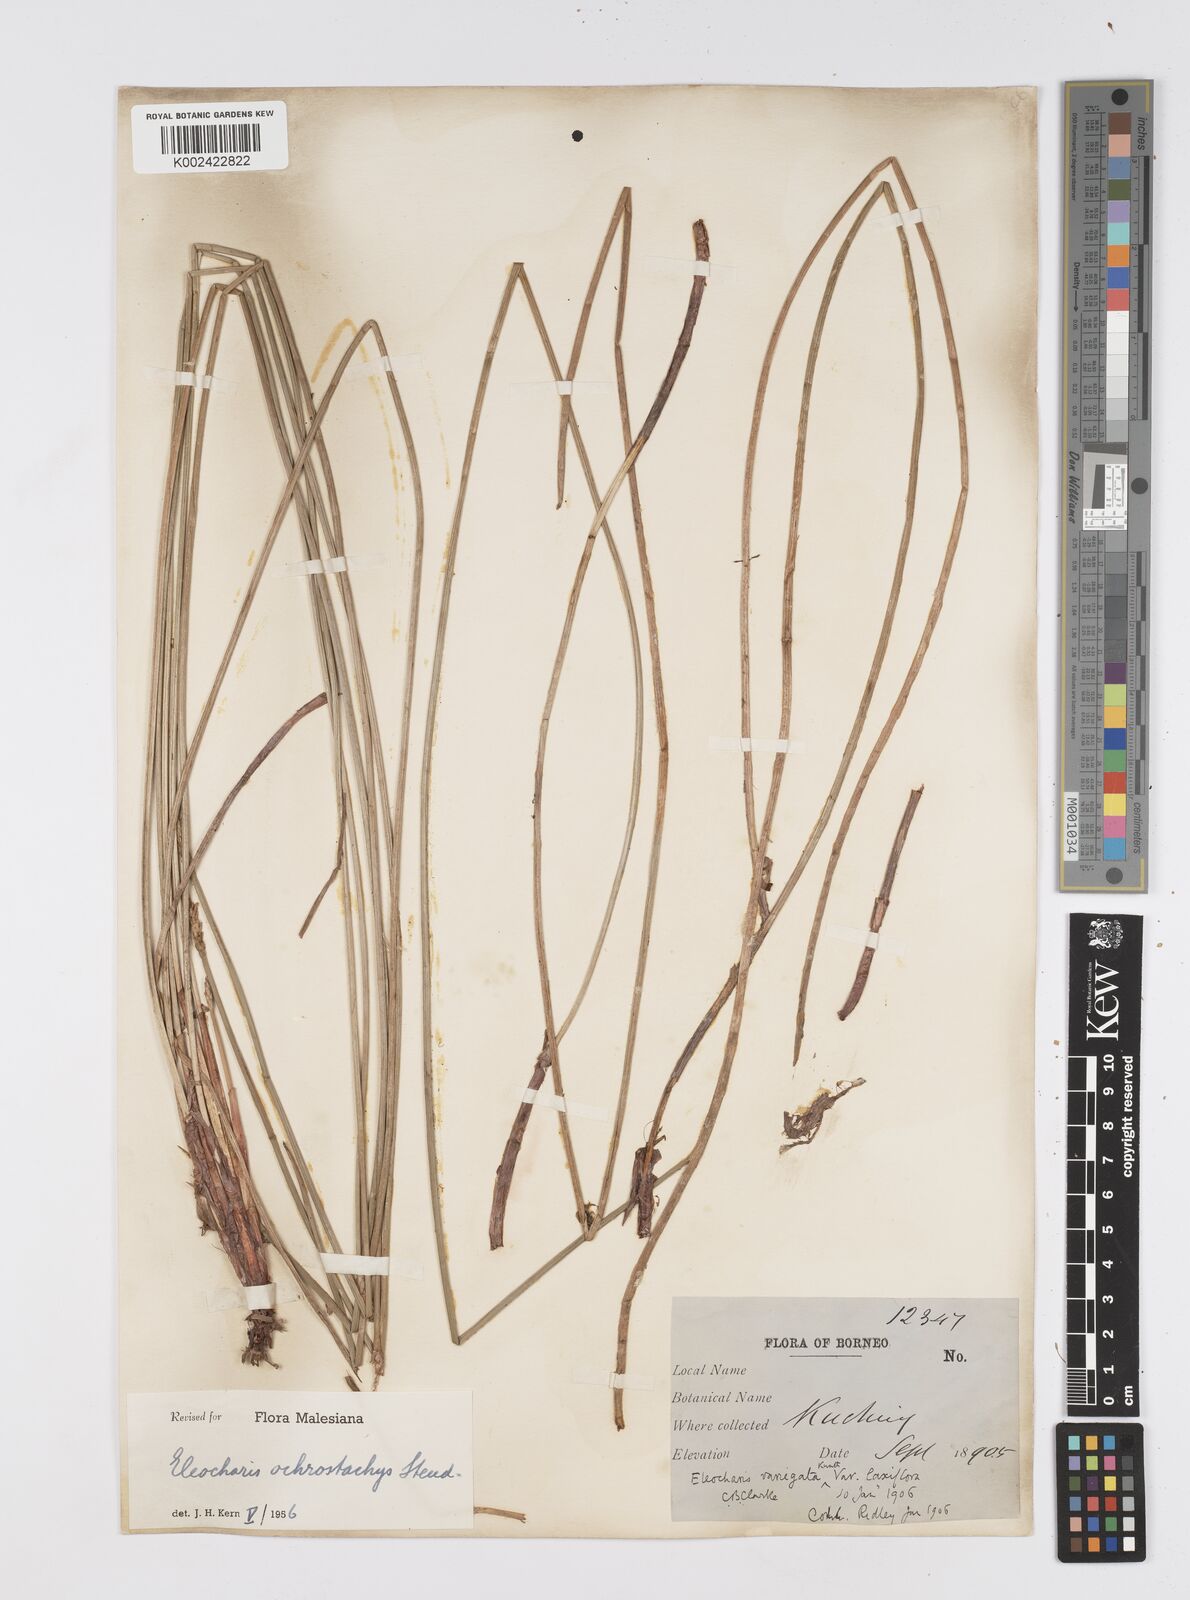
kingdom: Plantae
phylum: Tracheophyta
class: Liliopsida
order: Poales
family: Cyperaceae
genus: Eleocharis
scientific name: Eleocharis ochrostachys
